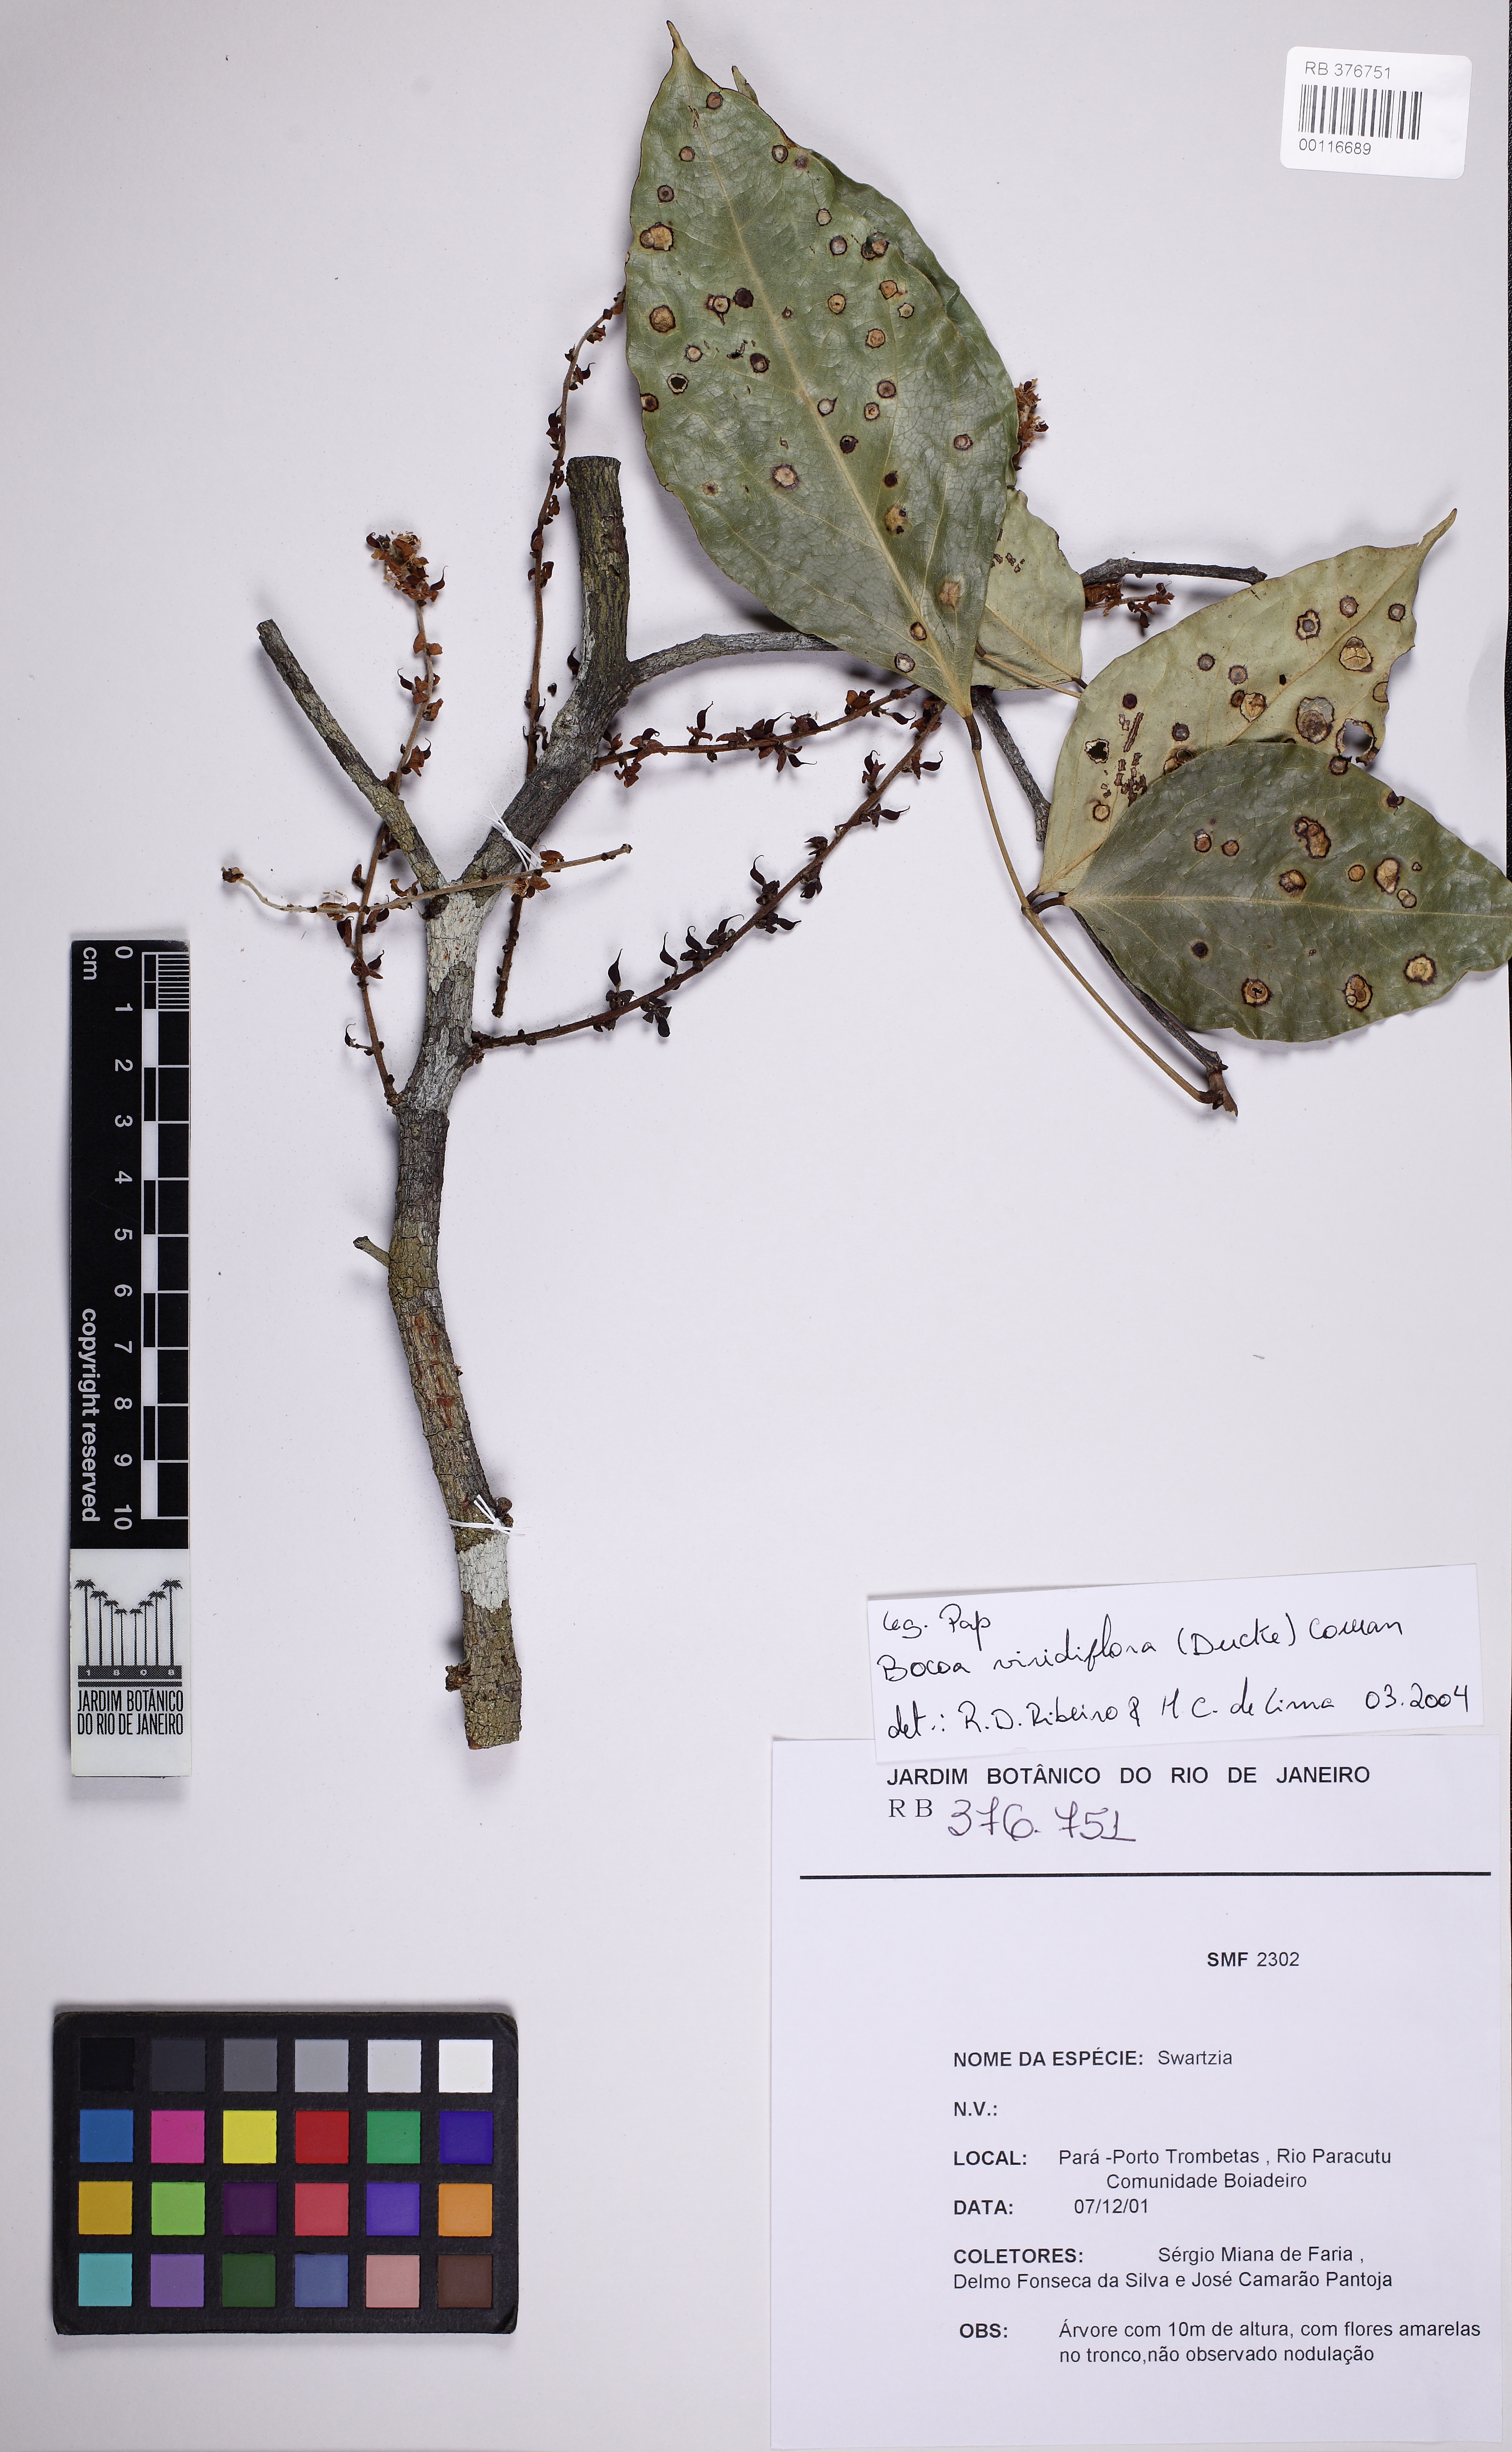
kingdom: Plantae
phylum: Tracheophyta
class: Magnoliopsida
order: Fabales
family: Fabaceae
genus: Bocoa
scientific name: Bocoa viridiflora
